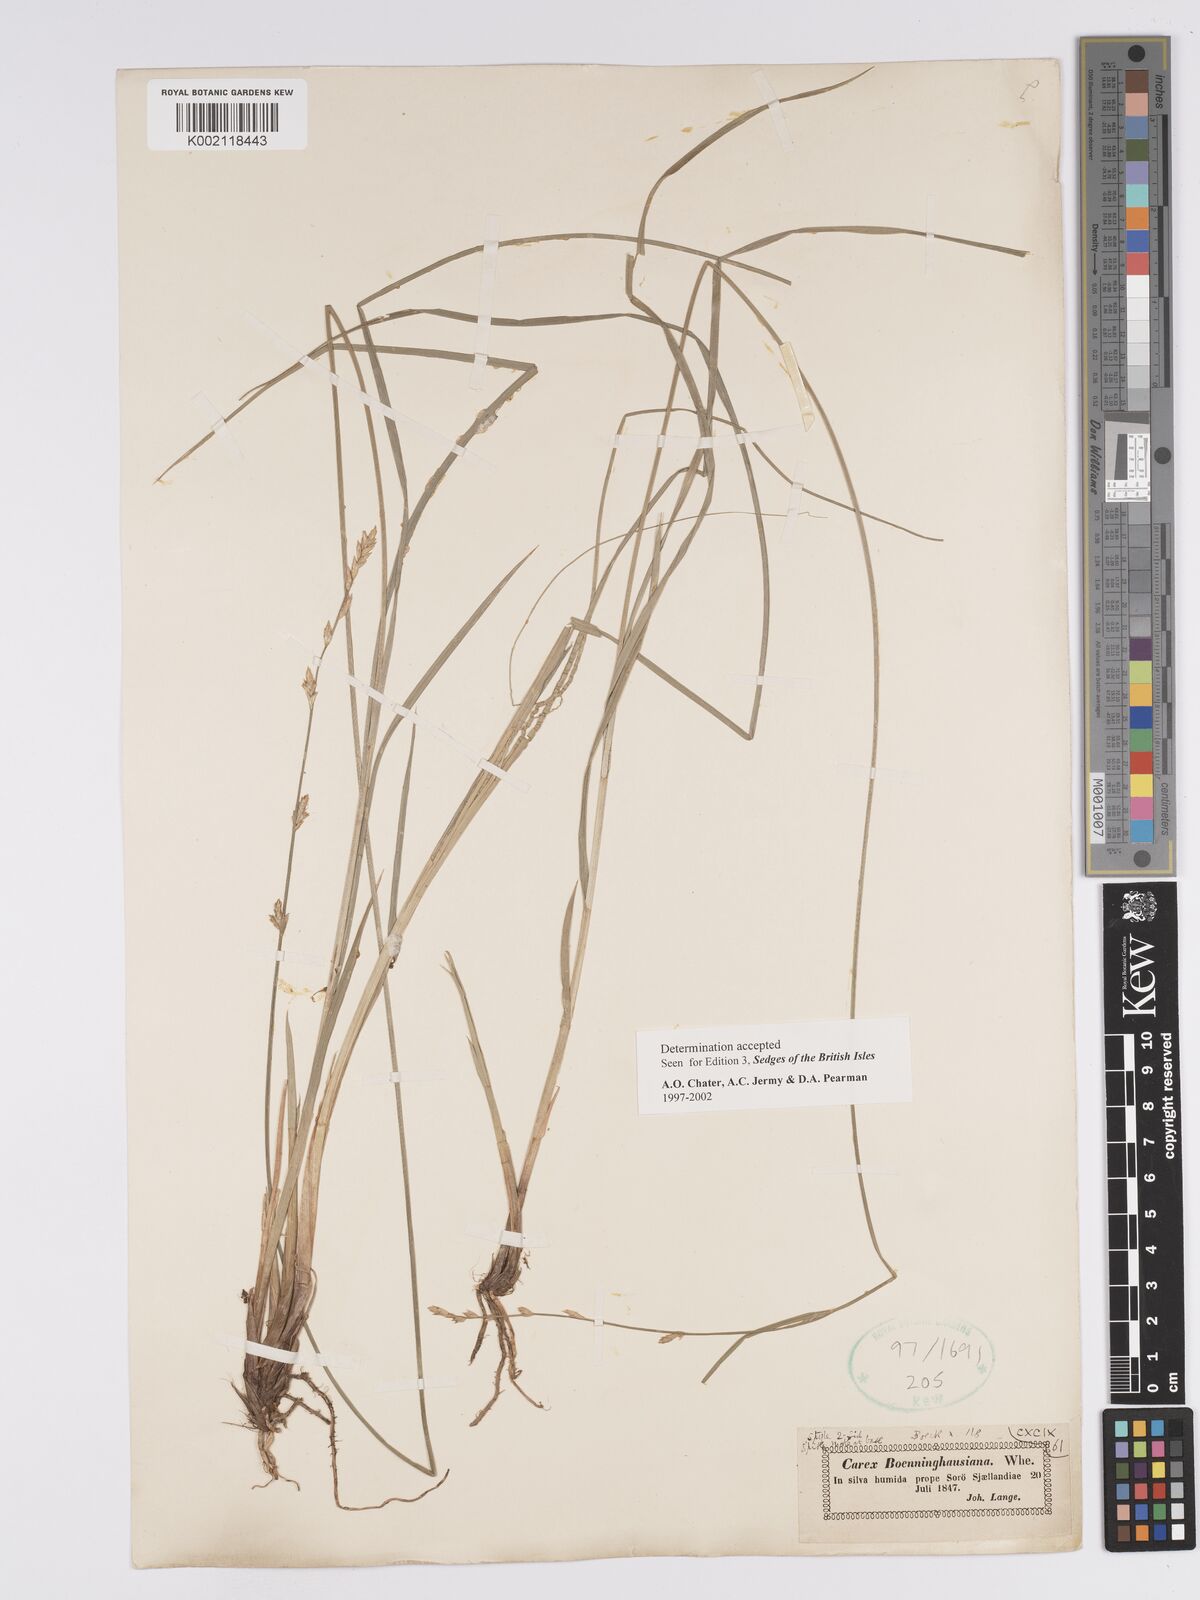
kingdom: Plantae
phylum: Tracheophyta
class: Liliopsida
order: Poales
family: Cyperaceae
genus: Carex
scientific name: Carex boenninghausiana
